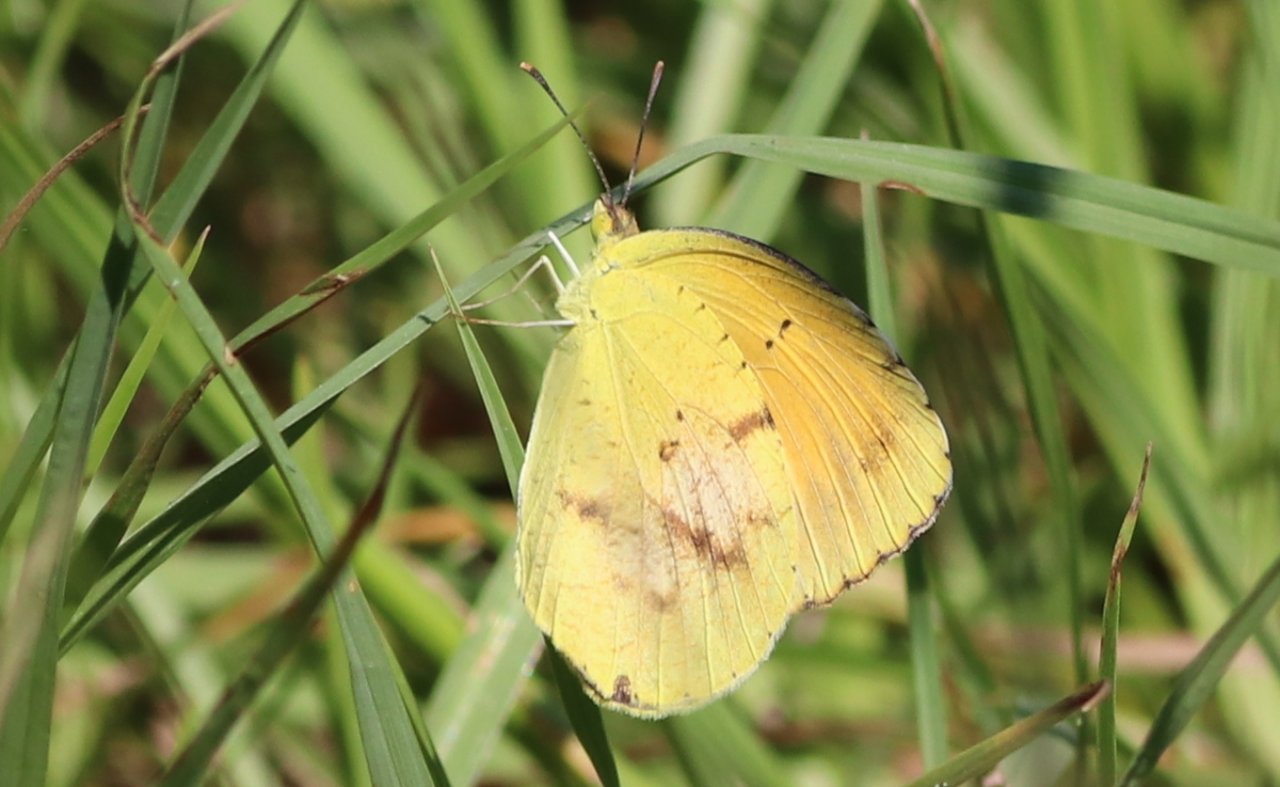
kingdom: Animalia
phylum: Arthropoda
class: Insecta
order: Lepidoptera
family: Pieridae
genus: Abaeis
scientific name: Abaeis nicippe
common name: Sleepy Orange
